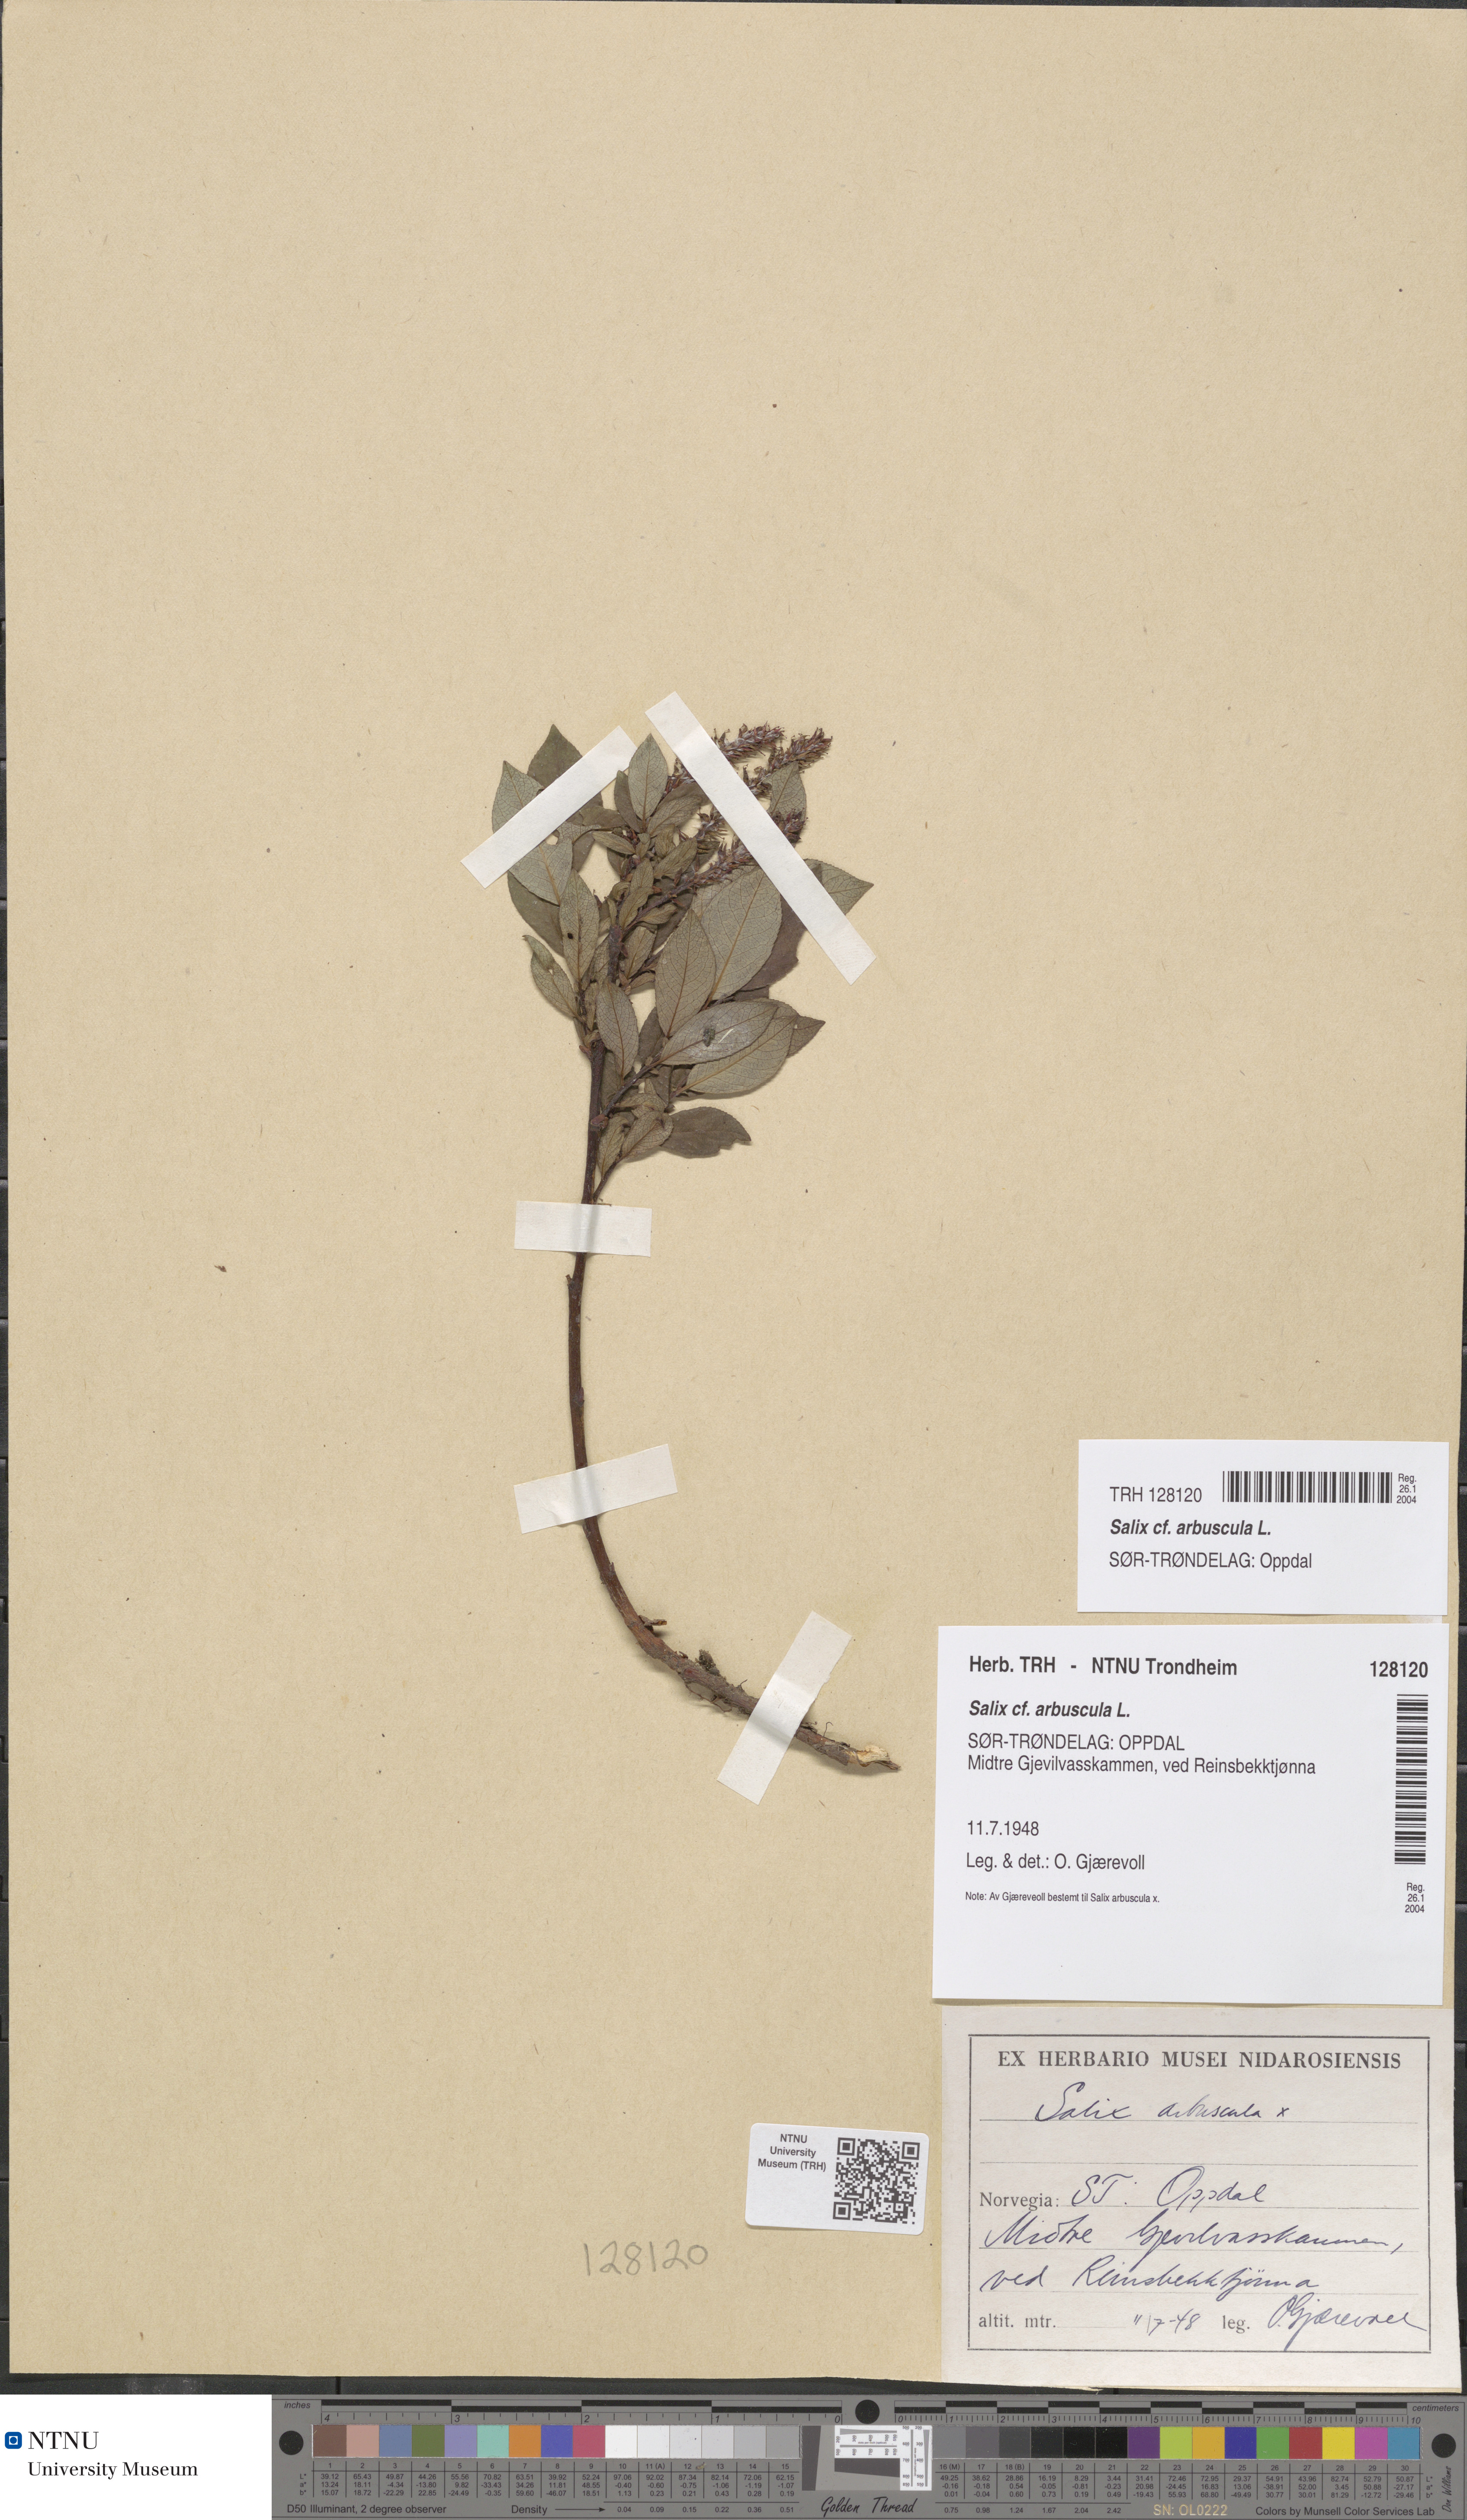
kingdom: Plantae
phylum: Tracheophyta
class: Magnoliopsida
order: Malpighiales
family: Salicaceae
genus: Salix
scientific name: Salix arbuscula
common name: Mountain willow
